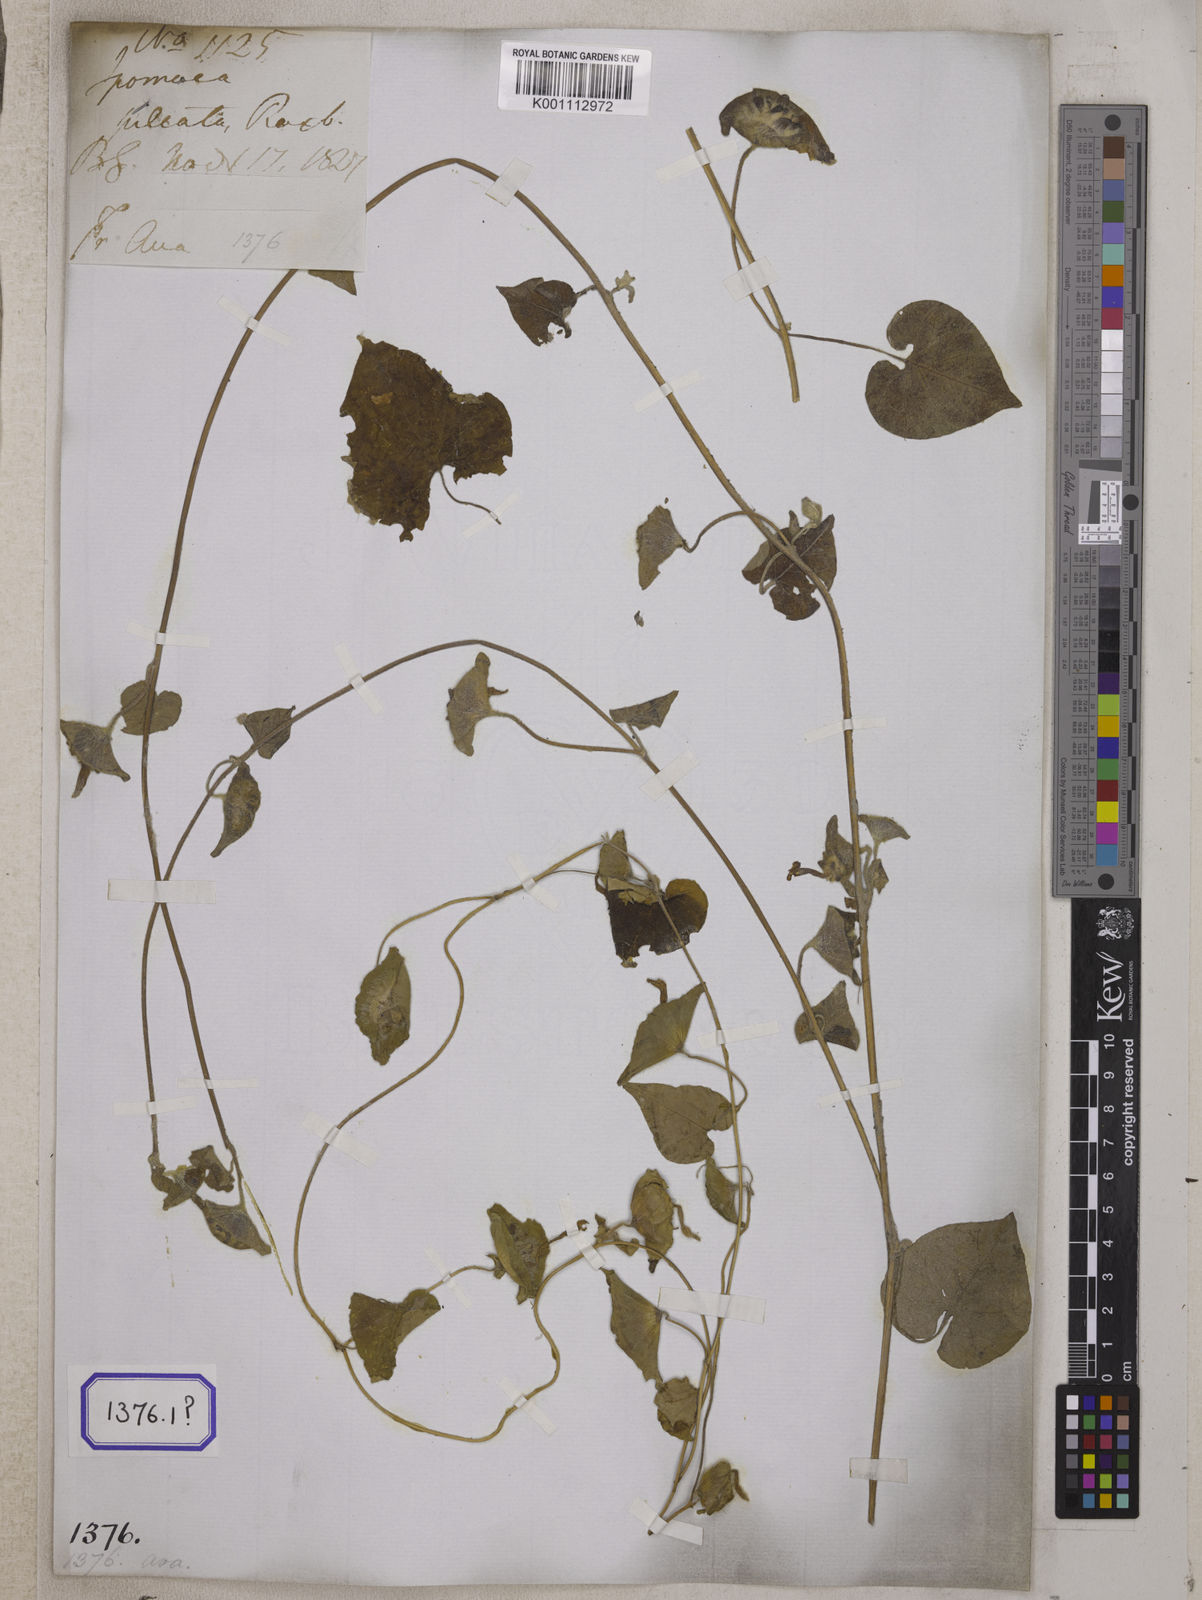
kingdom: Plantae
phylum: Tracheophyta
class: Magnoliopsida
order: Solanales
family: Convolvulaceae
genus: Ipomoea
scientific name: Ipomoea pileata
